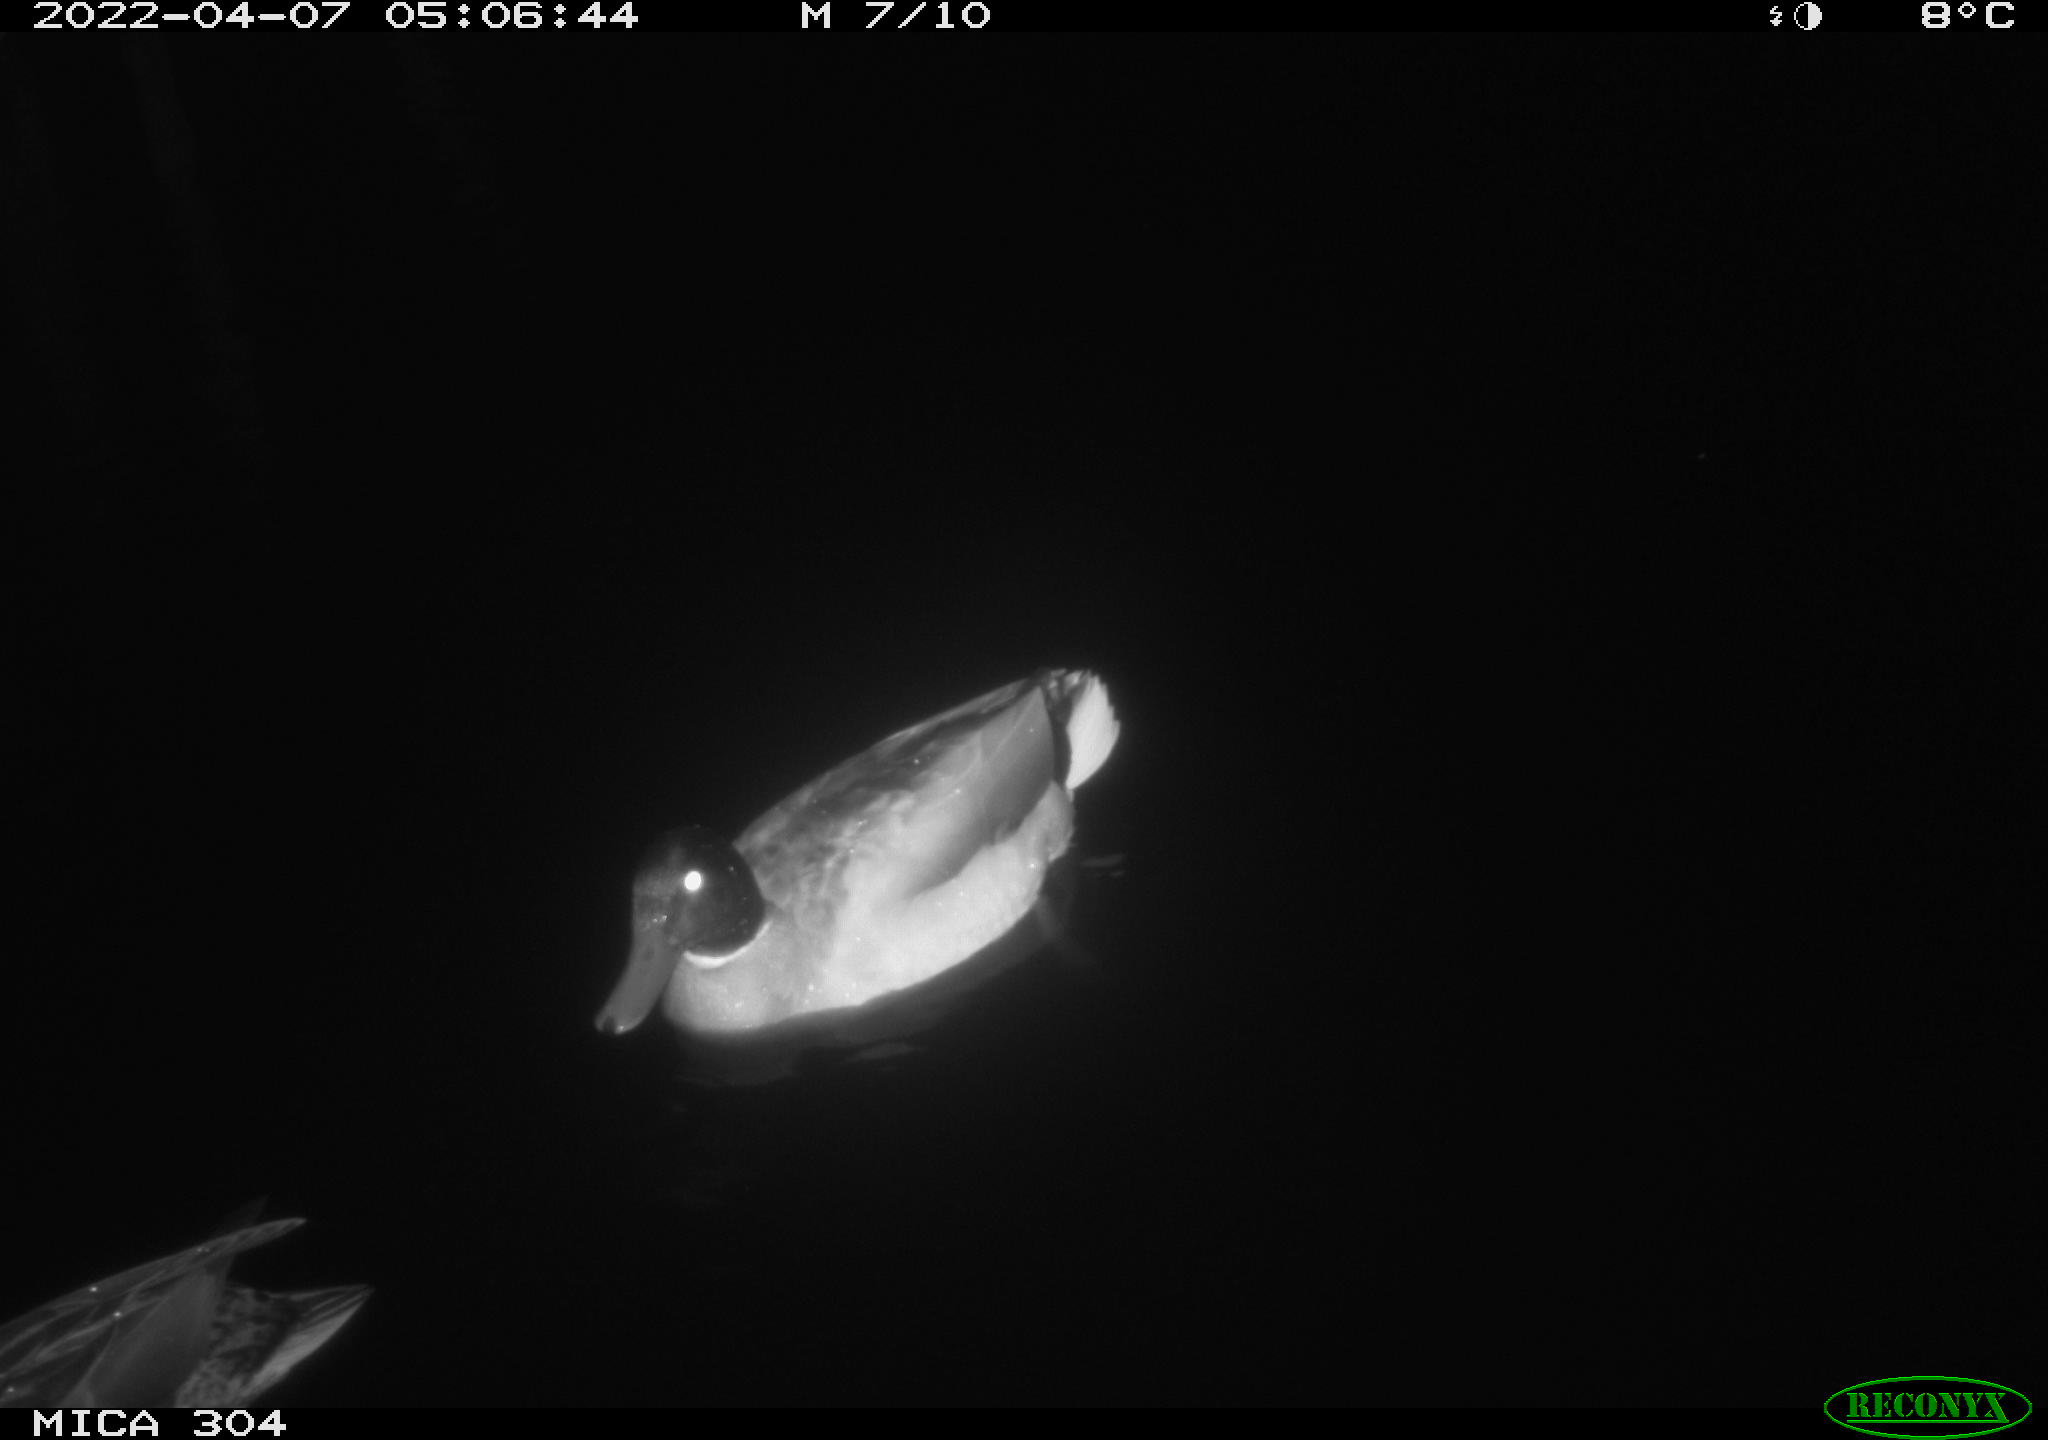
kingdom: Animalia
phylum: Chordata
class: Aves
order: Anseriformes
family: Anatidae
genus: Anas
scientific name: Anas platyrhynchos
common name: Mallard
